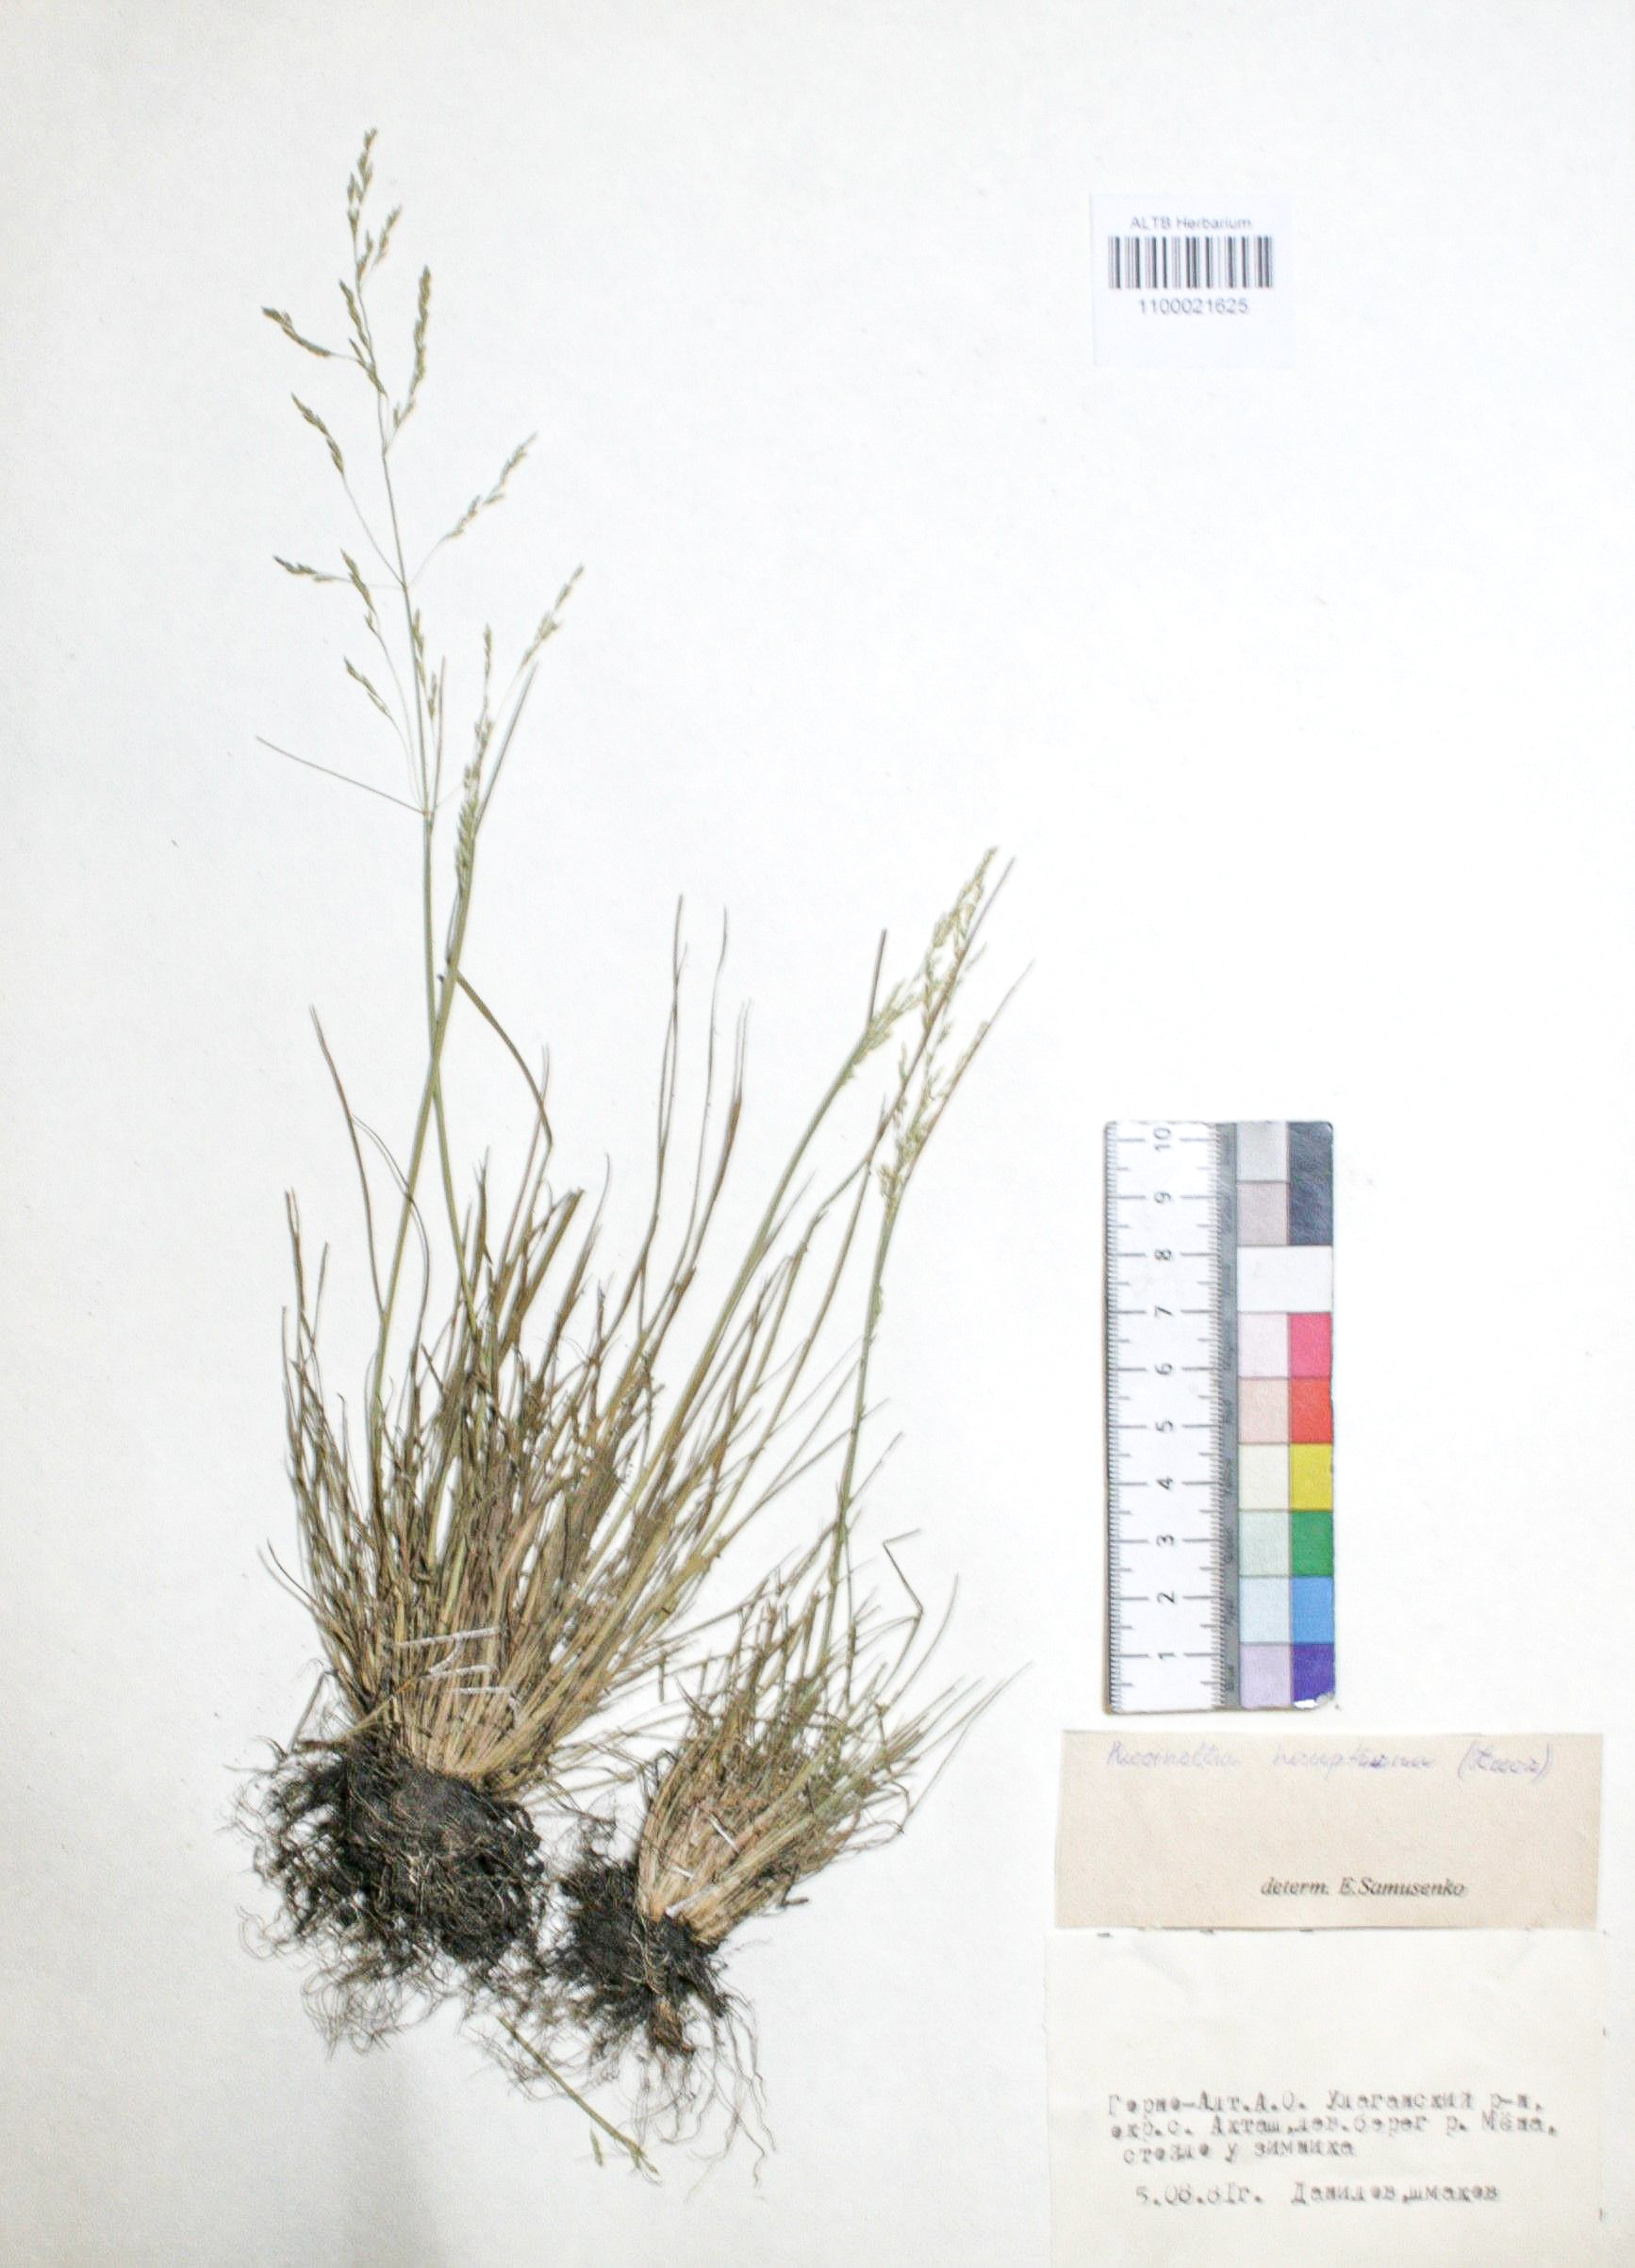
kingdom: Plantae
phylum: Tracheophyta
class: Liliopsida
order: Poales
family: Poaceae
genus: Puccinellia
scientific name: Puccinellia hauptiana
